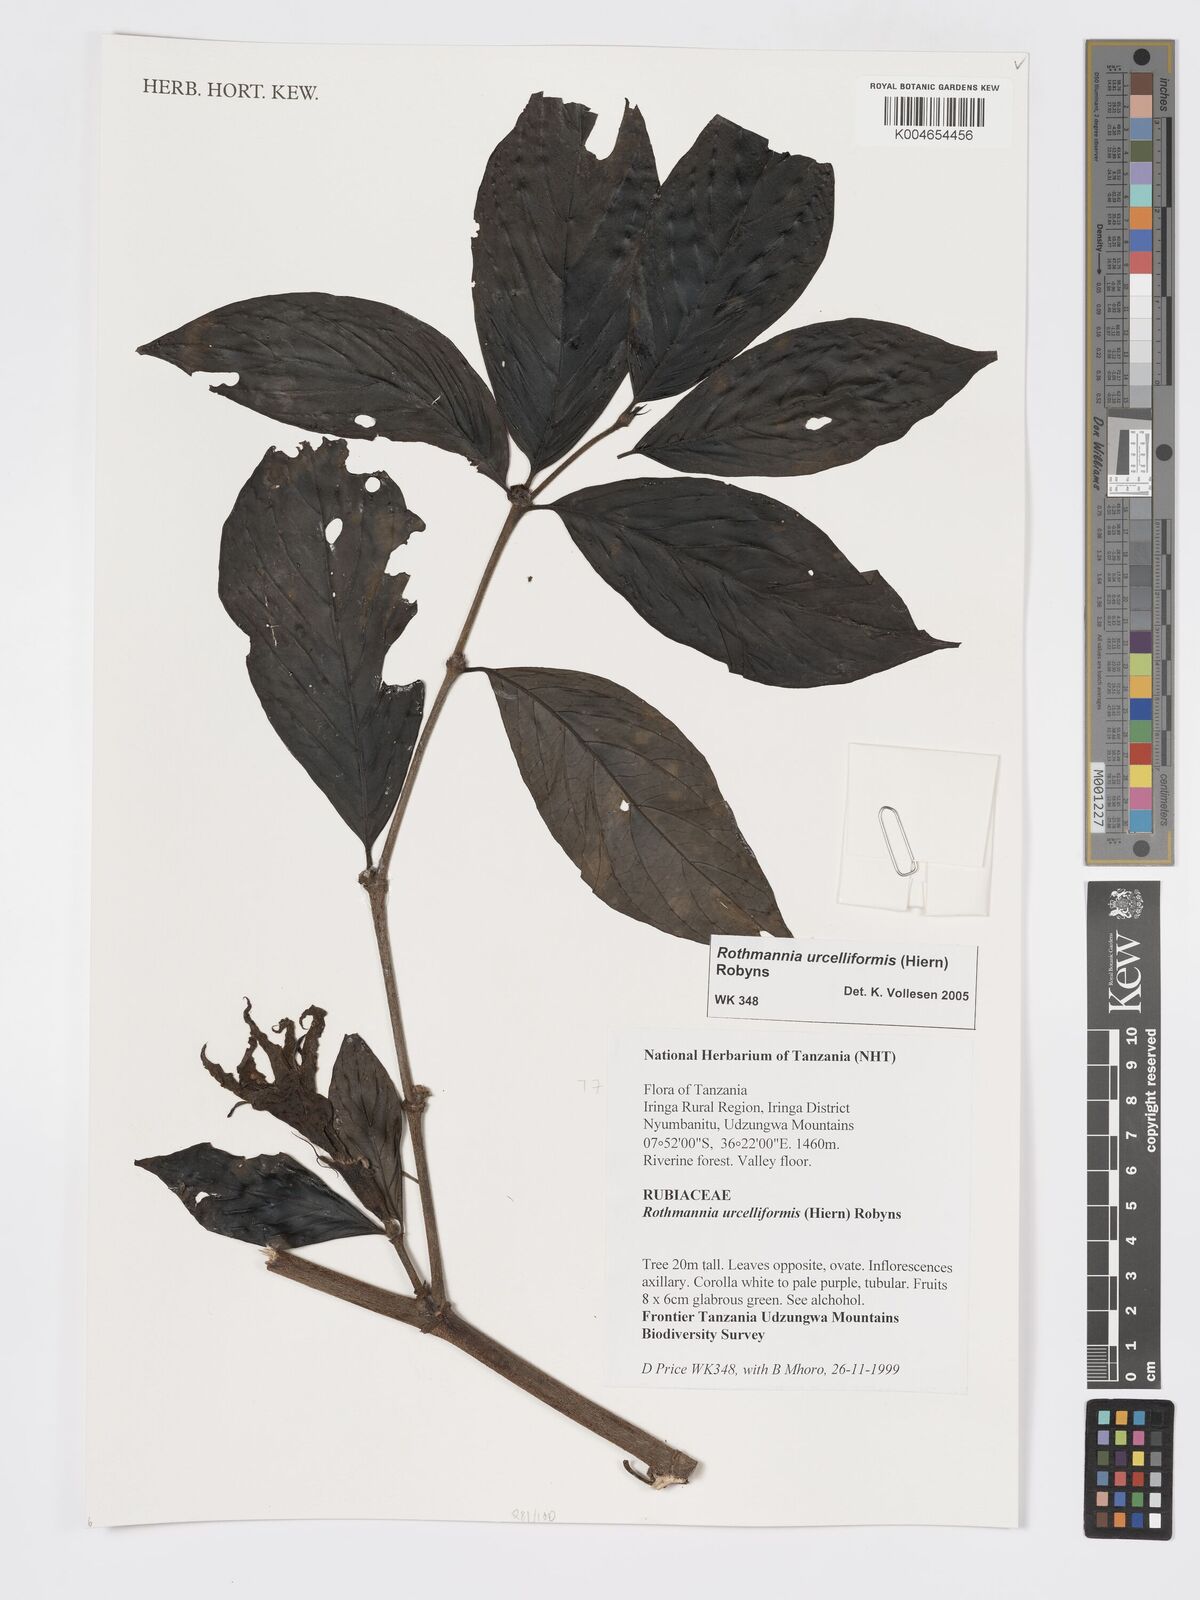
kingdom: Plantae
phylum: Tracheophyta
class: Magnoliopsida
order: Gentianales
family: Rubiaceae
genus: Rothmannia
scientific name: Rothmannia urcelliformis
